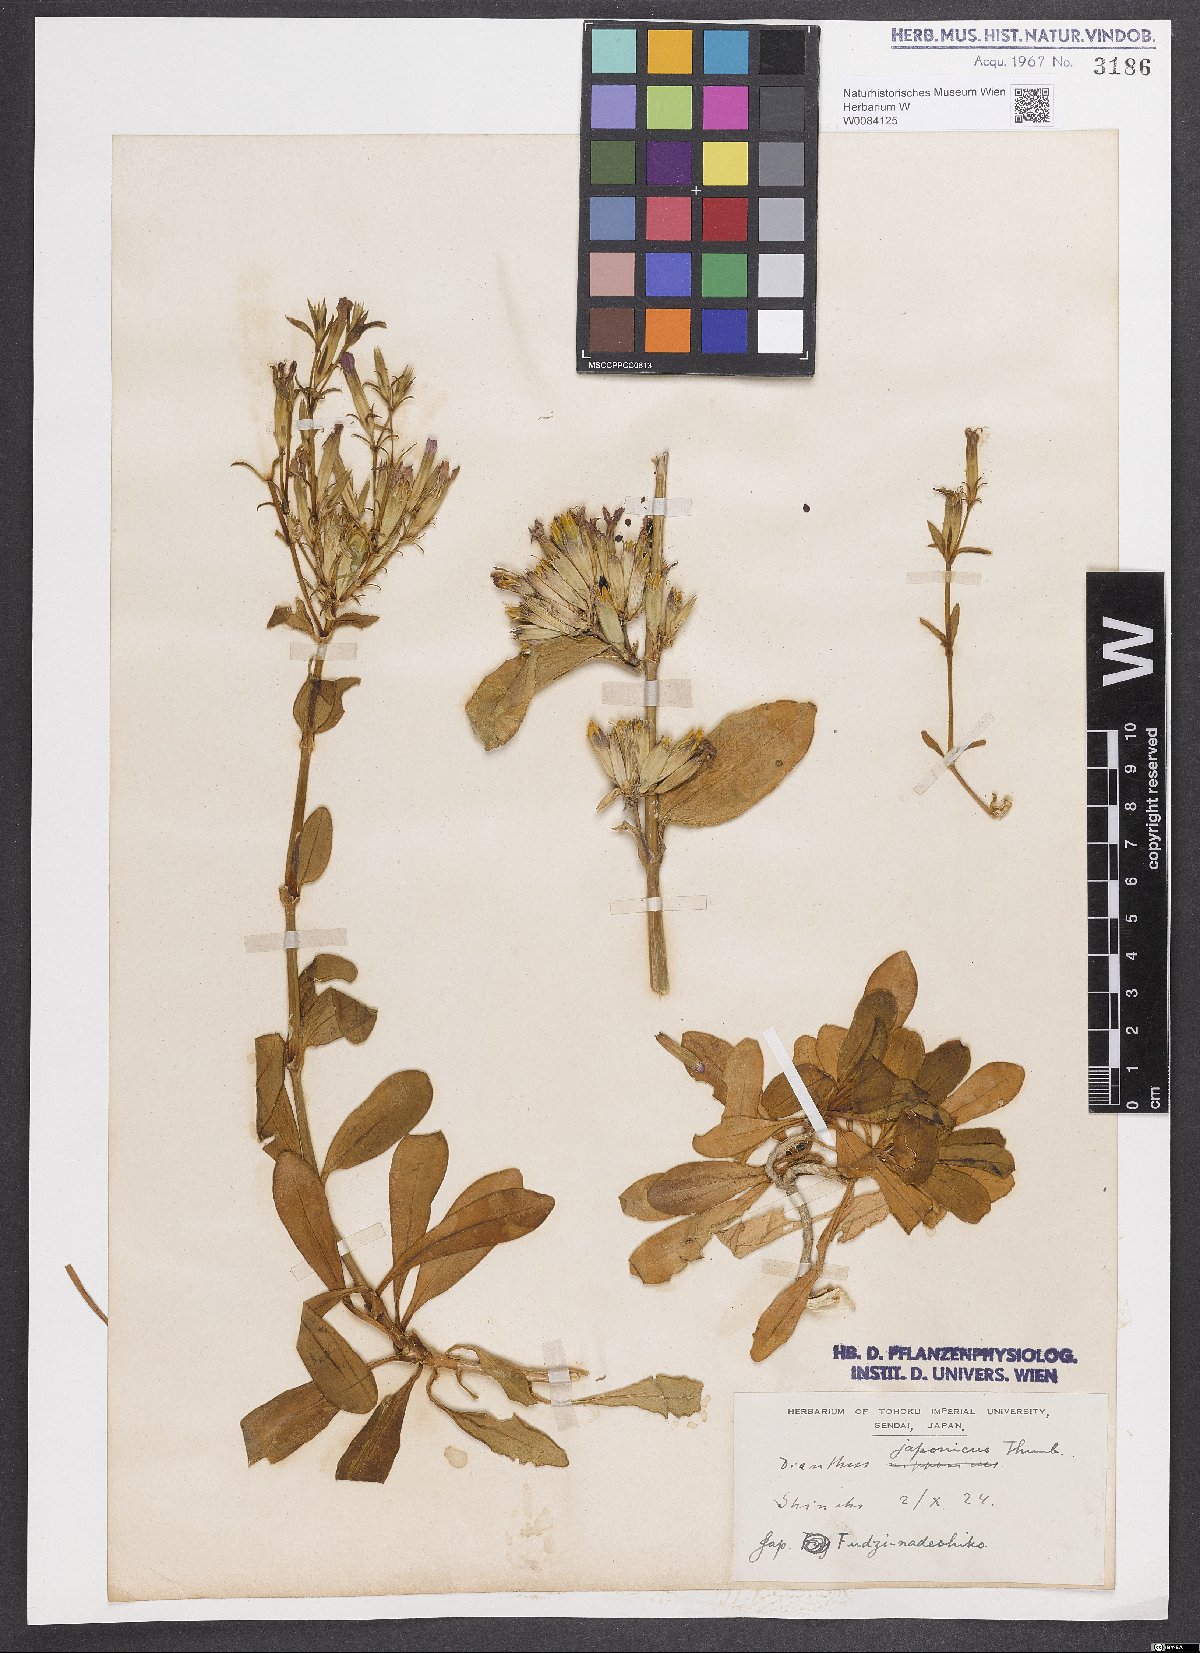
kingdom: Plantae
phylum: Tracheophyta
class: Magnoliopsida
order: Caryophyllales
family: Caryophyllaceae
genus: Dianthus
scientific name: Dianthus japonicus
